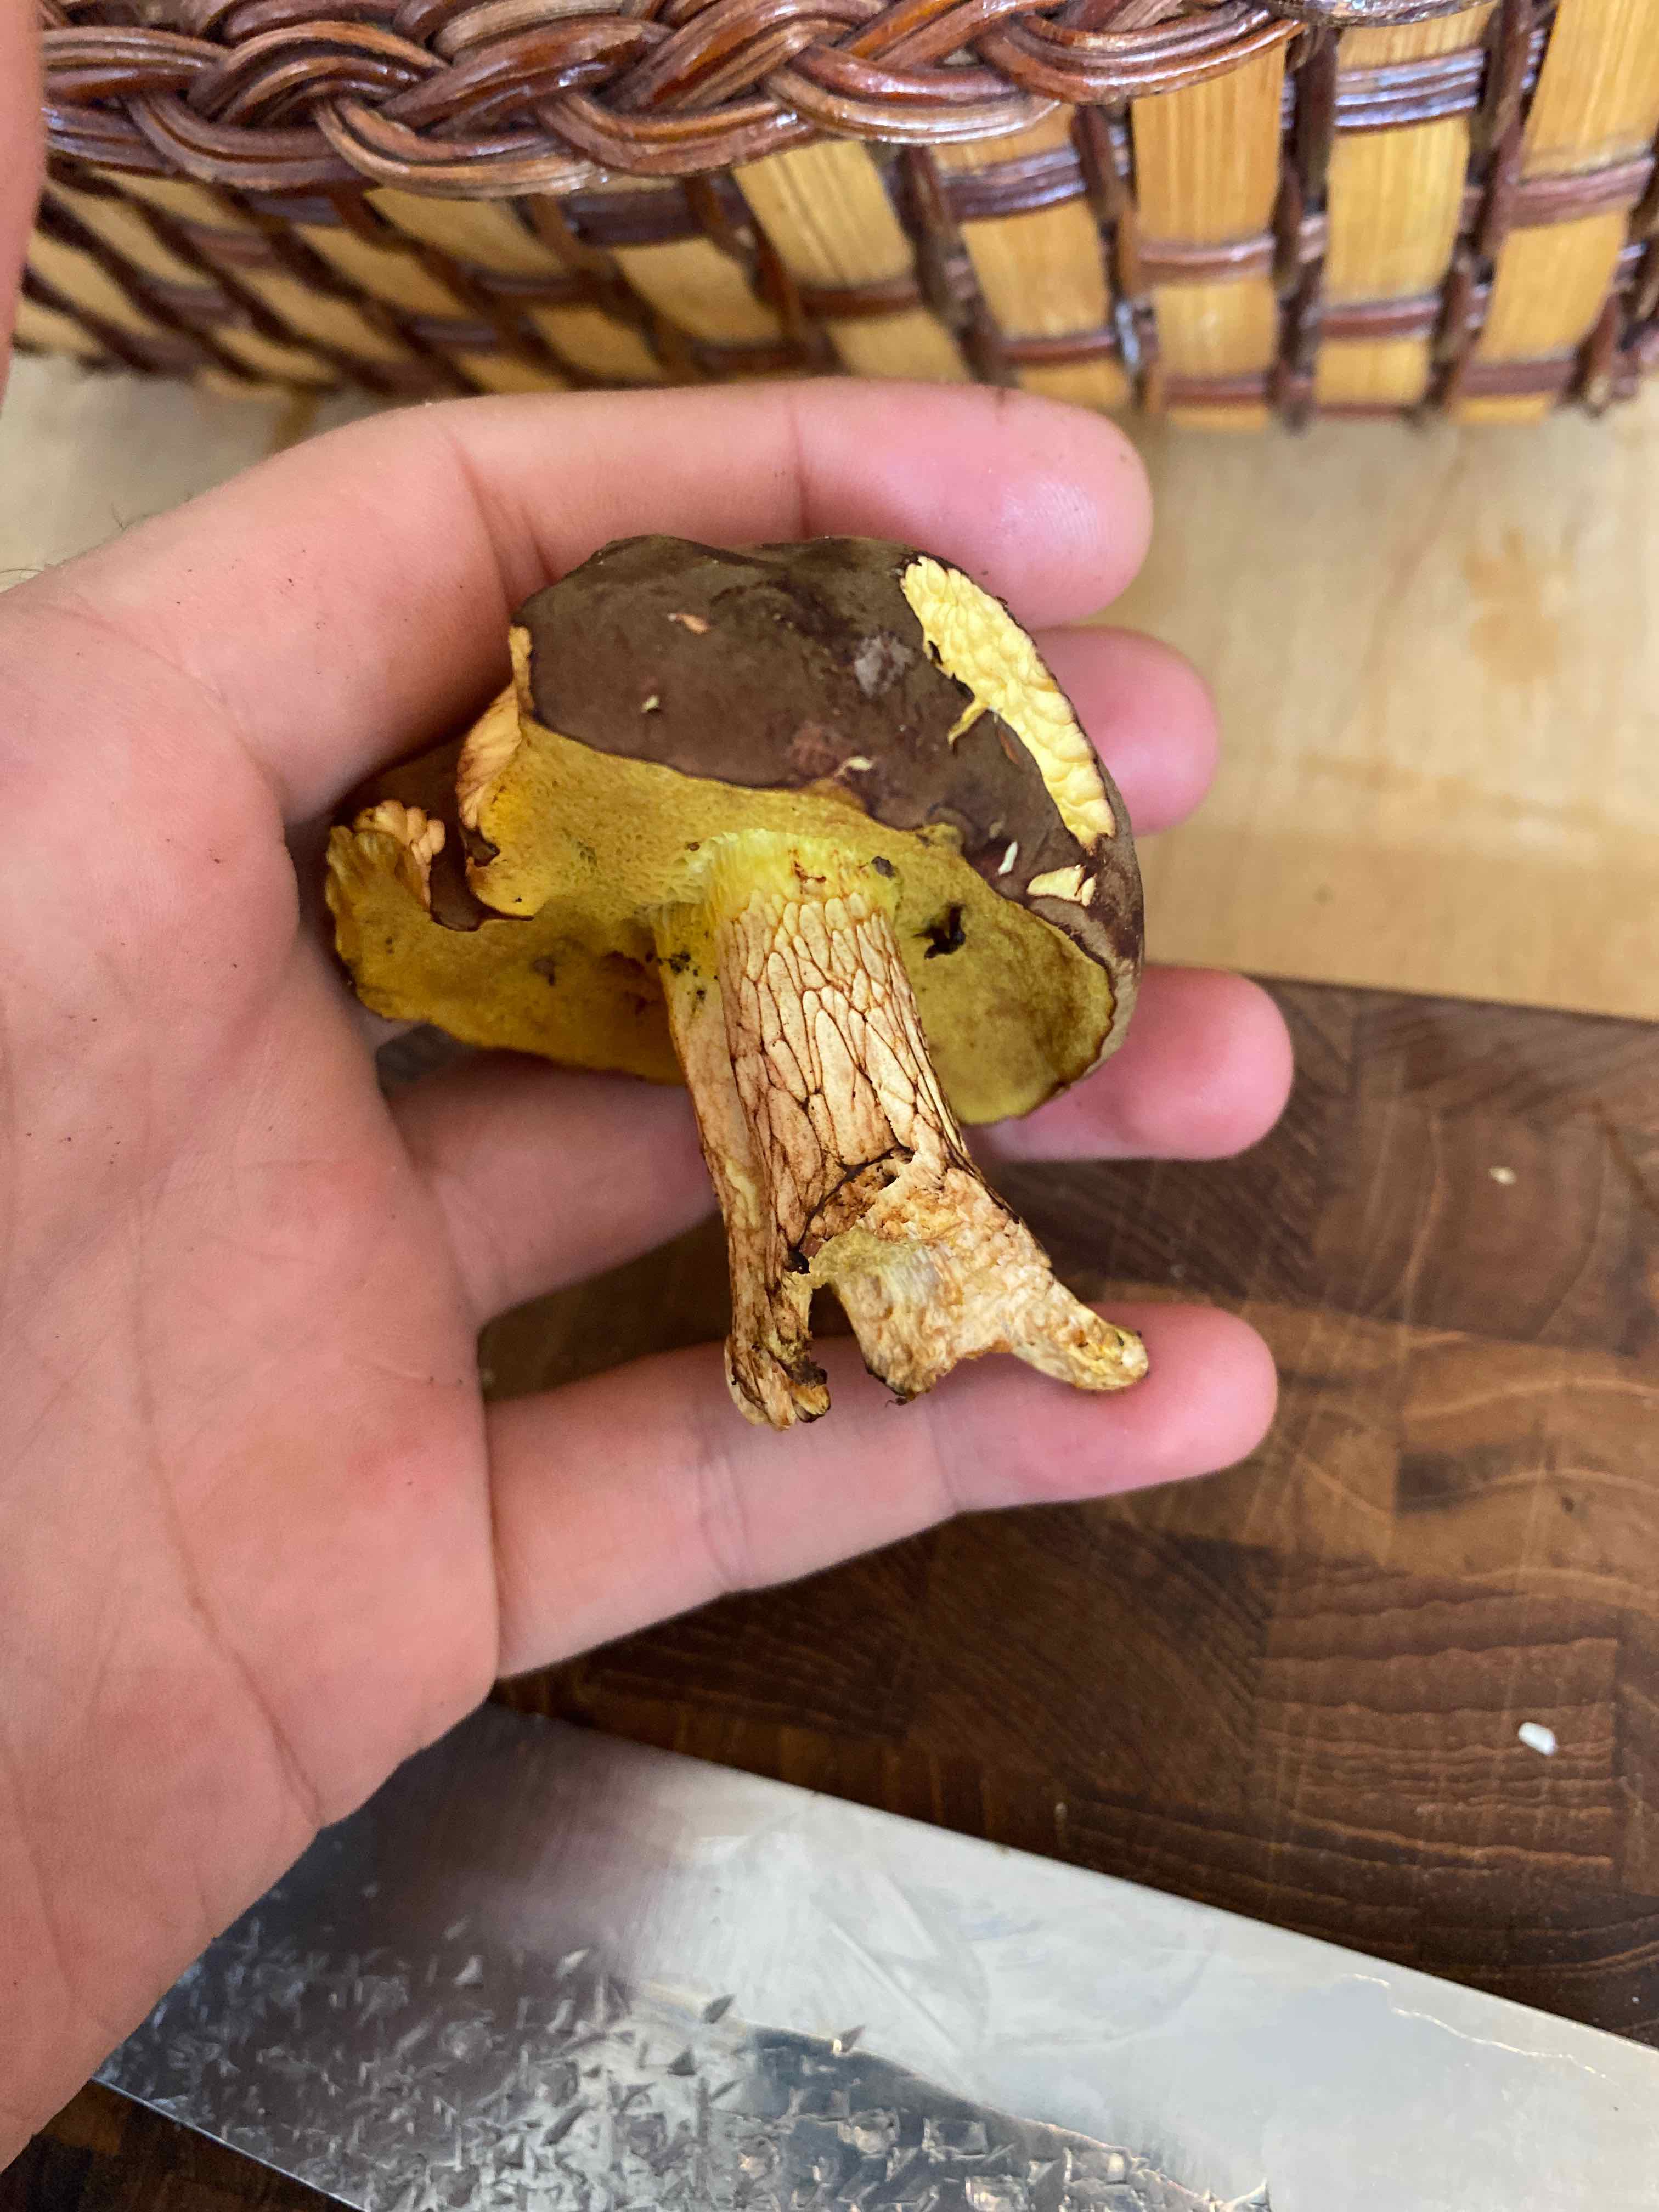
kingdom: Fungi
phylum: Basidiomycota
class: Agaricomycetes
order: Boletales
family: Boletaceae
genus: Xerocomus
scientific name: Xerocomus
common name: filtrørhat
